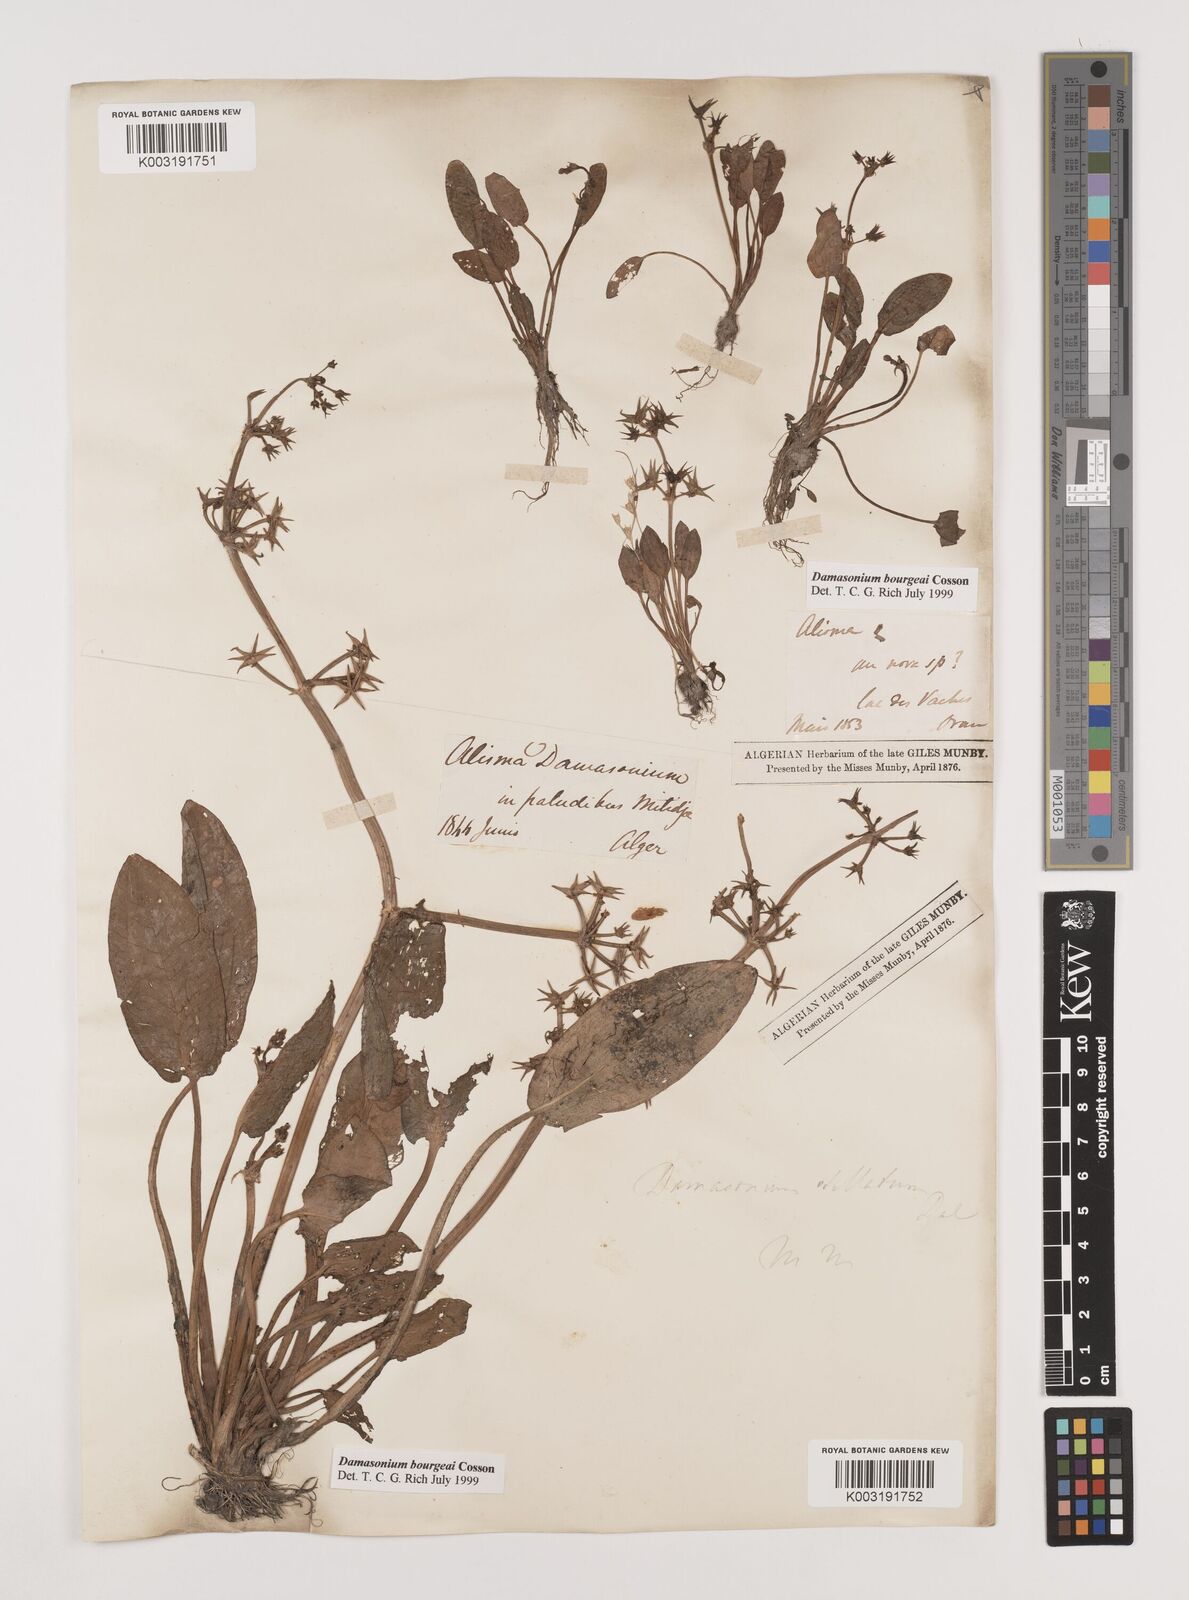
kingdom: Plantae
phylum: Tracheophyta
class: Liliopsida
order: Alismatales
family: Alismataceae
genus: Damasonium
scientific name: Damasonium bourgaei
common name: Starfruit
